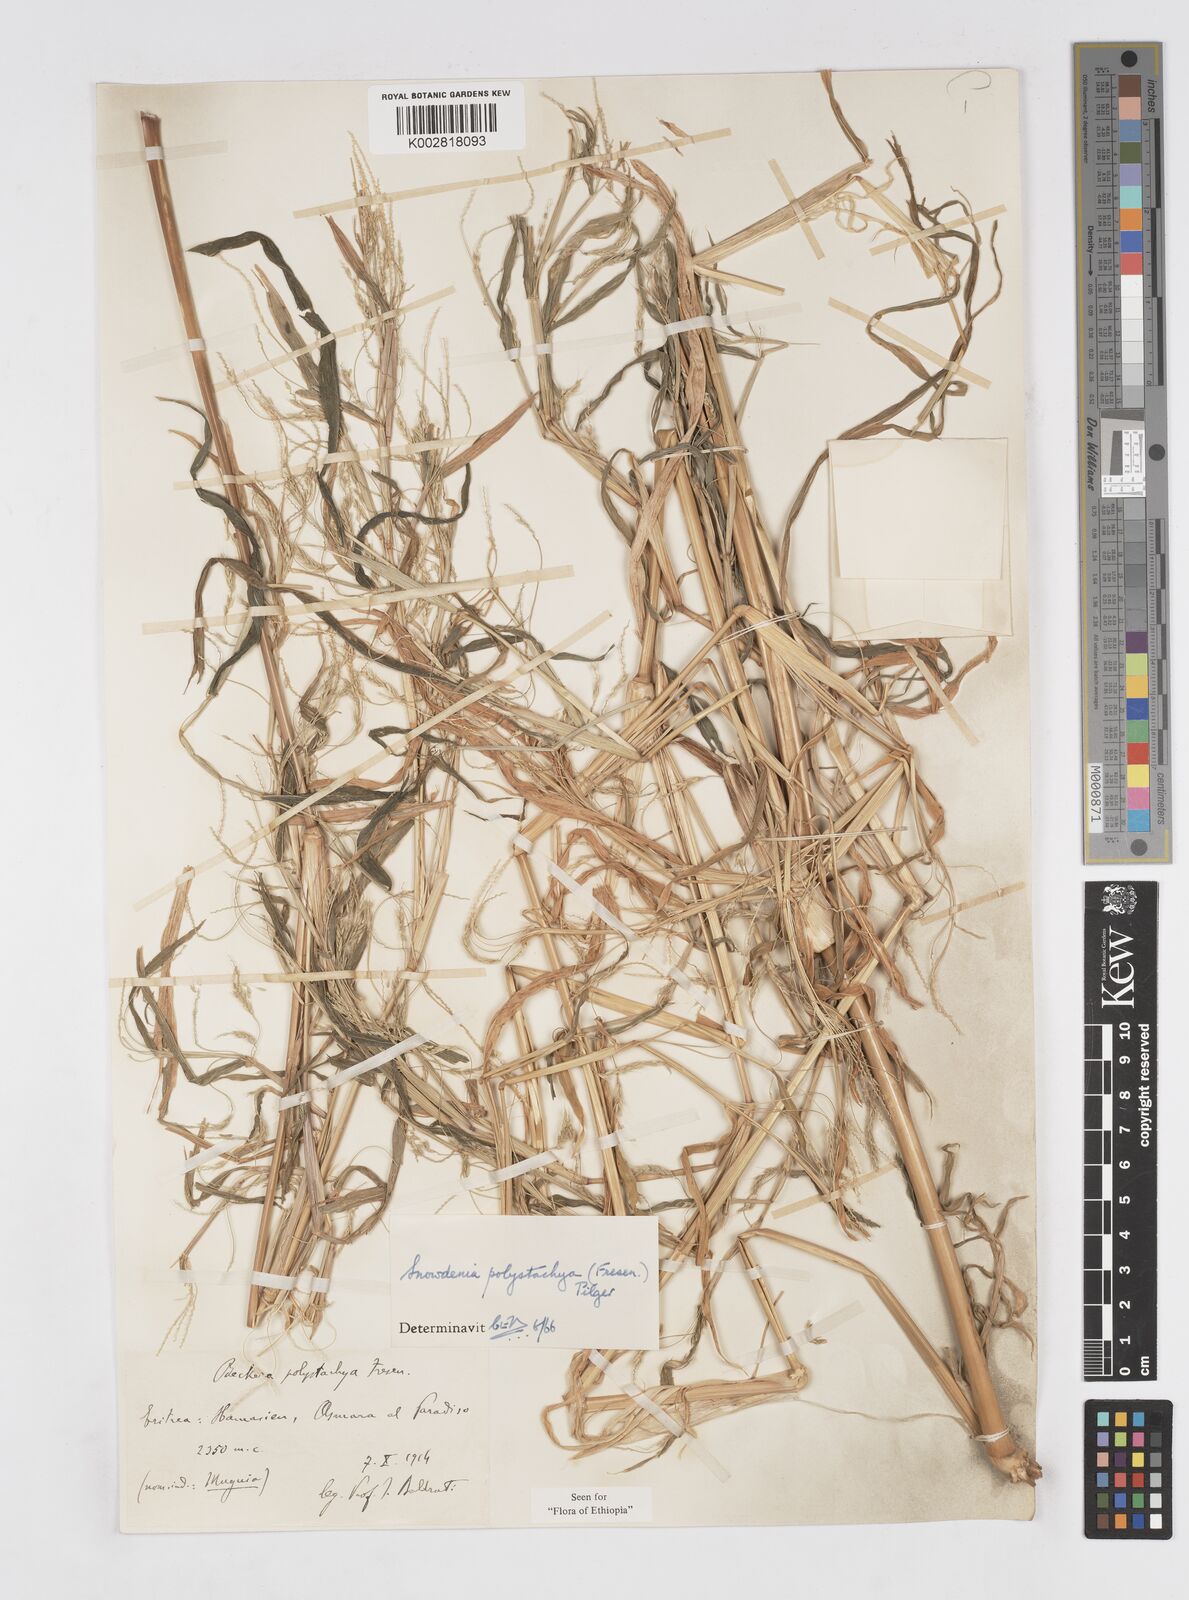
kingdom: Plantae
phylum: Tracheophyta
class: Liliopsida
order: Poales
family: Poaceae
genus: Snowdenia
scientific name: Snowdenia polystachya
